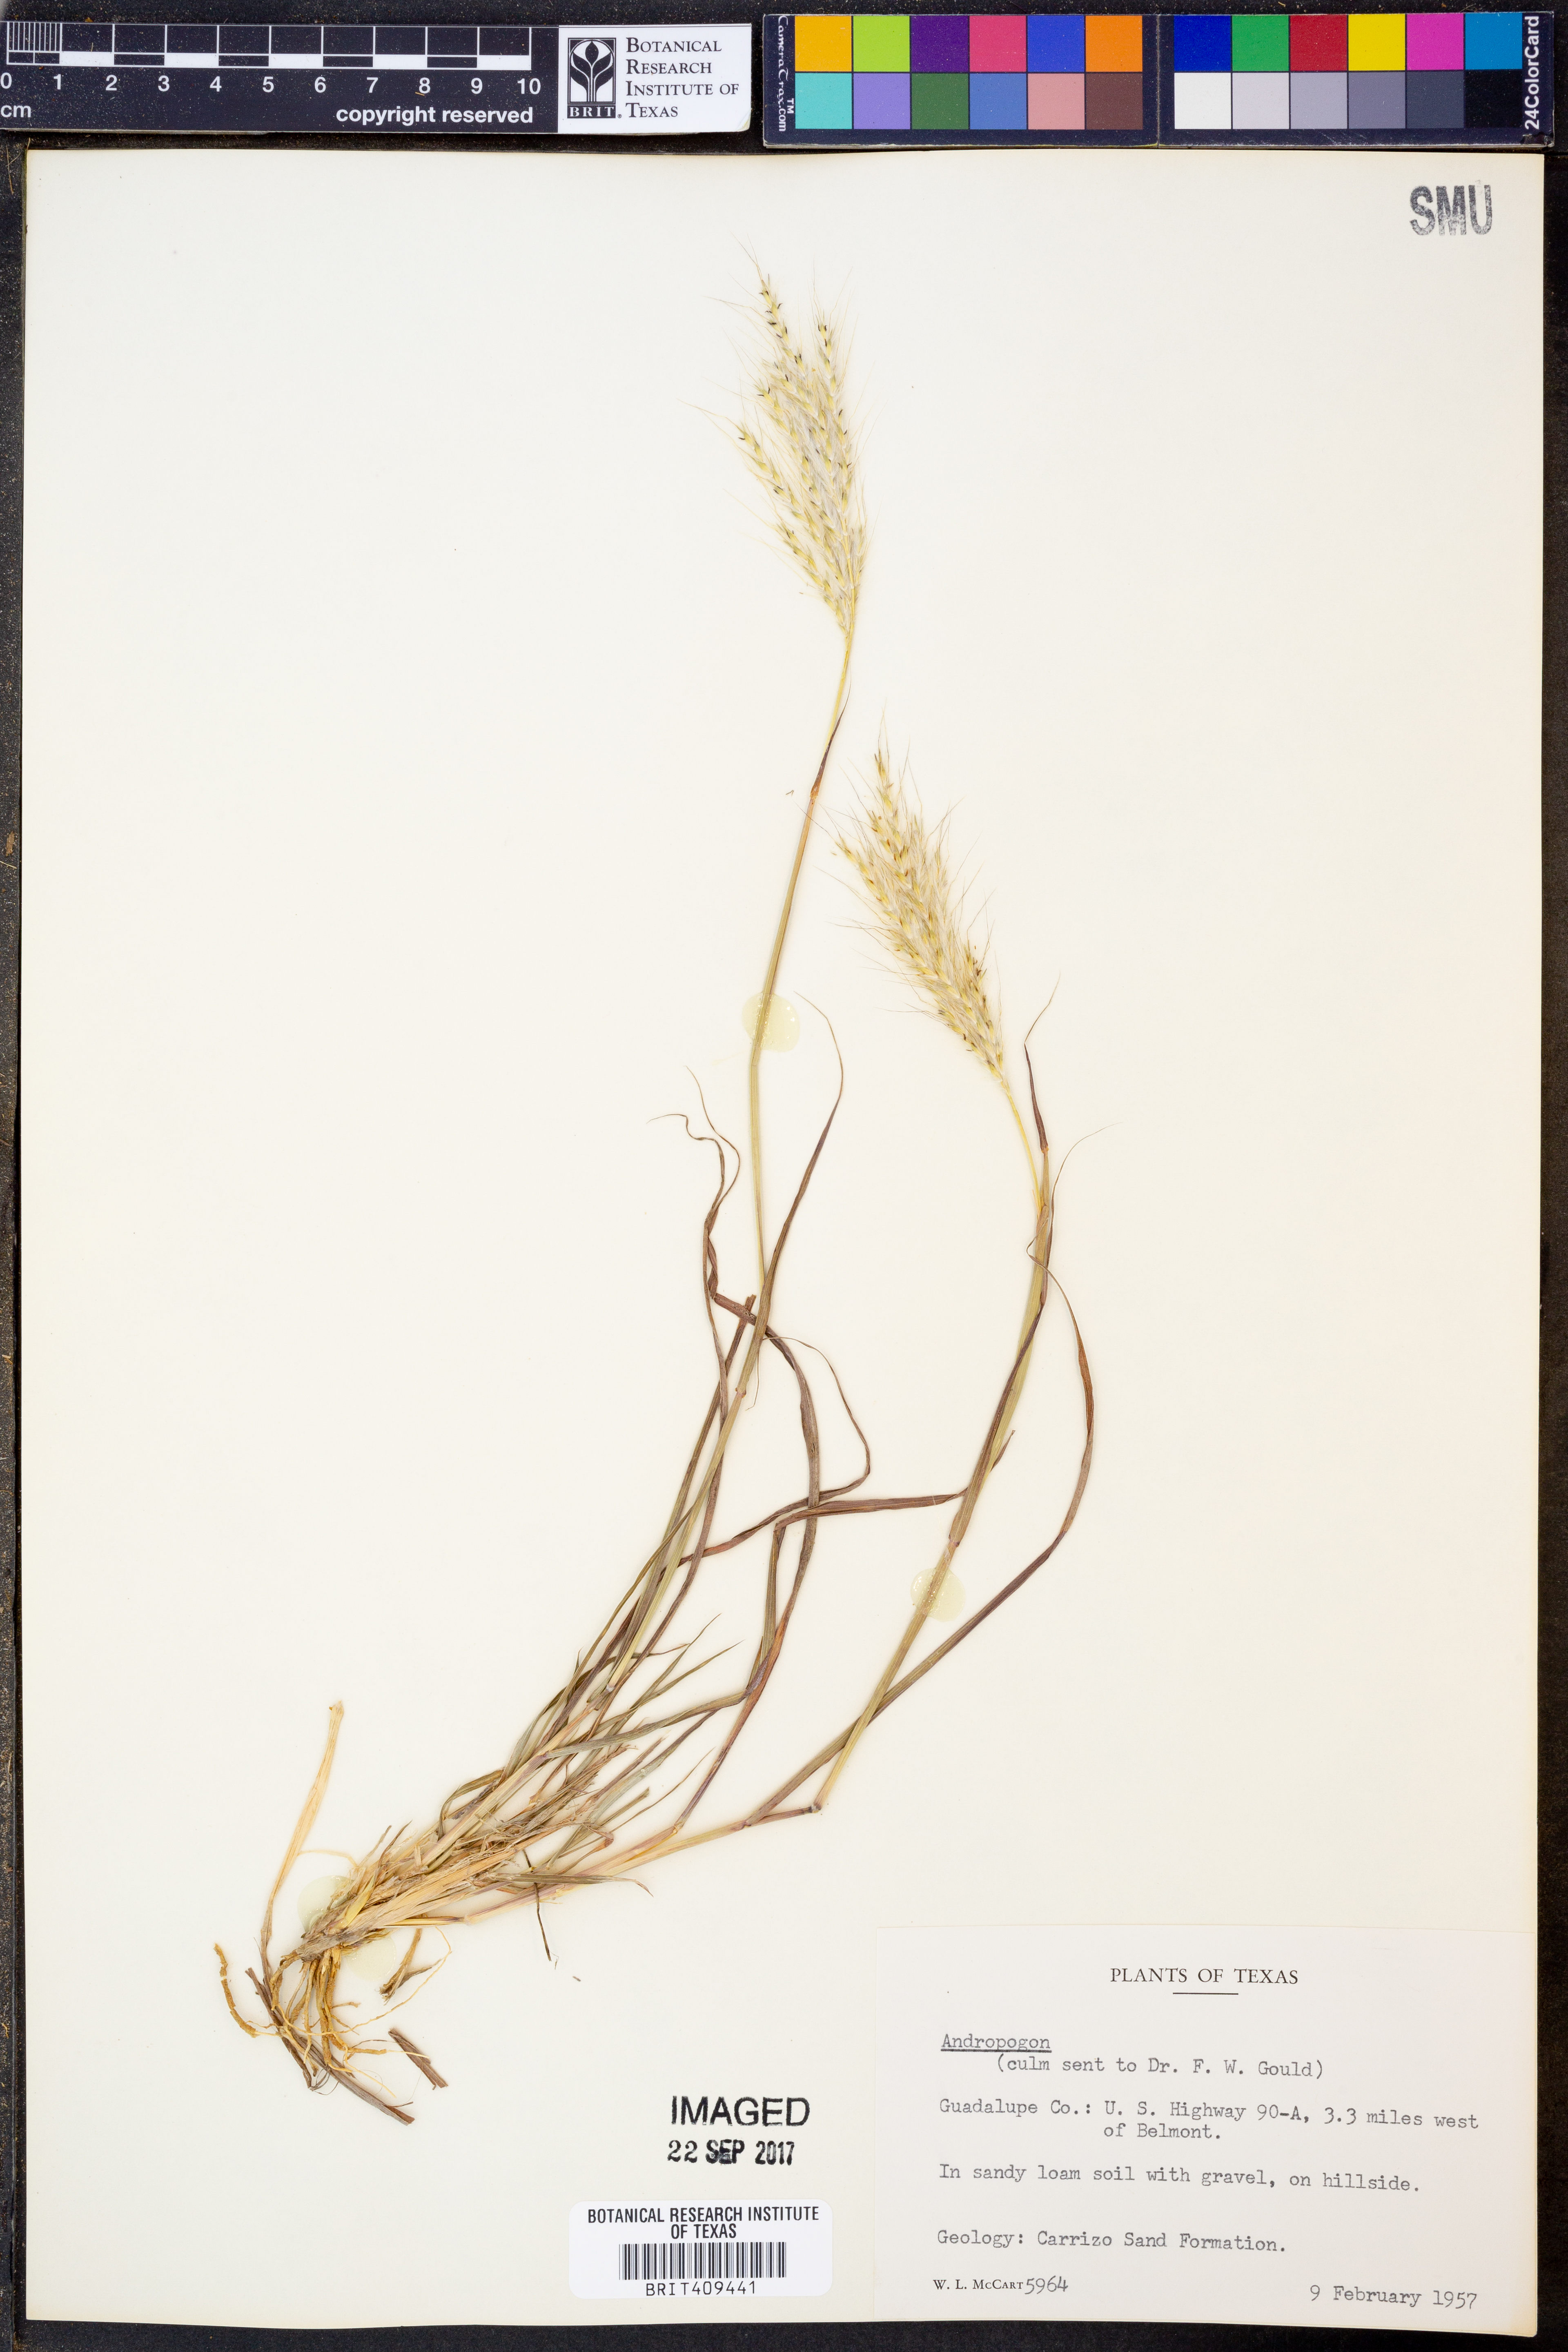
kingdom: Plantae
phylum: Tracheophyta
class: Liliopsida
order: Poales
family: Poaceae
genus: Andropogon
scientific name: Andropogon
